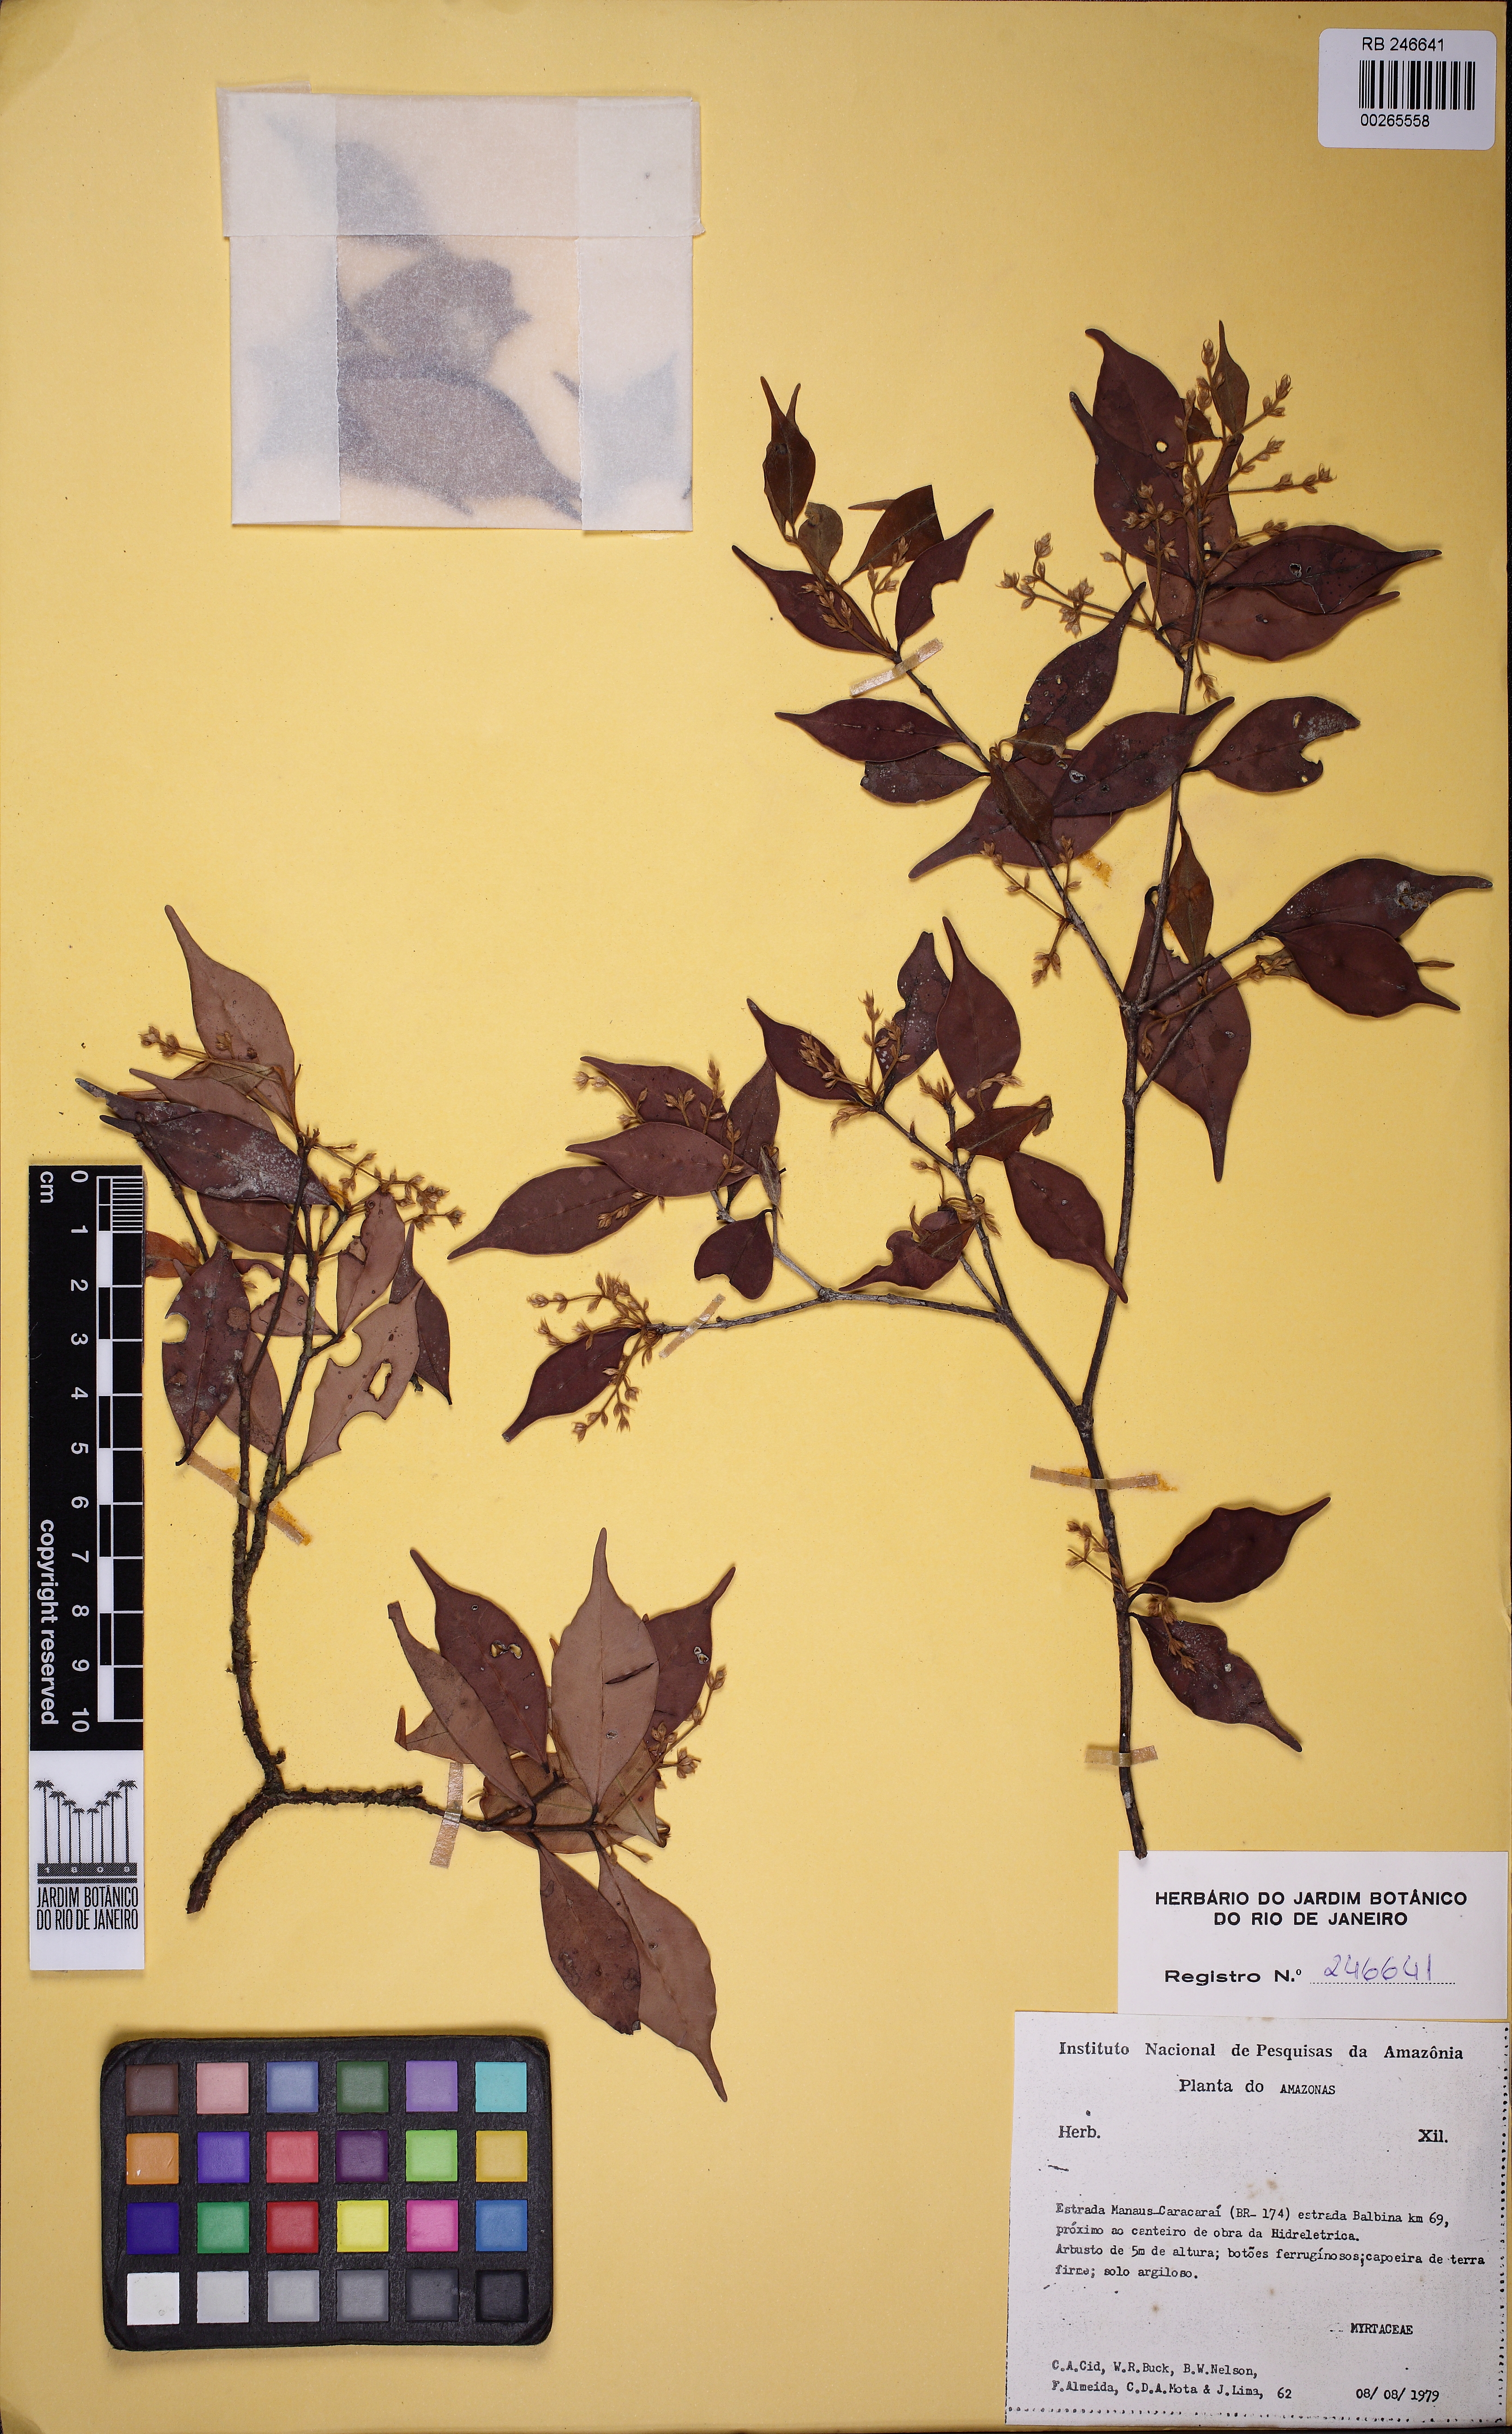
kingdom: Plantae
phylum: Tracheophyta
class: Magnoliopsida
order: Myrtales
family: Myrtaceae
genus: Myrcia
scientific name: Myrcia caudata
